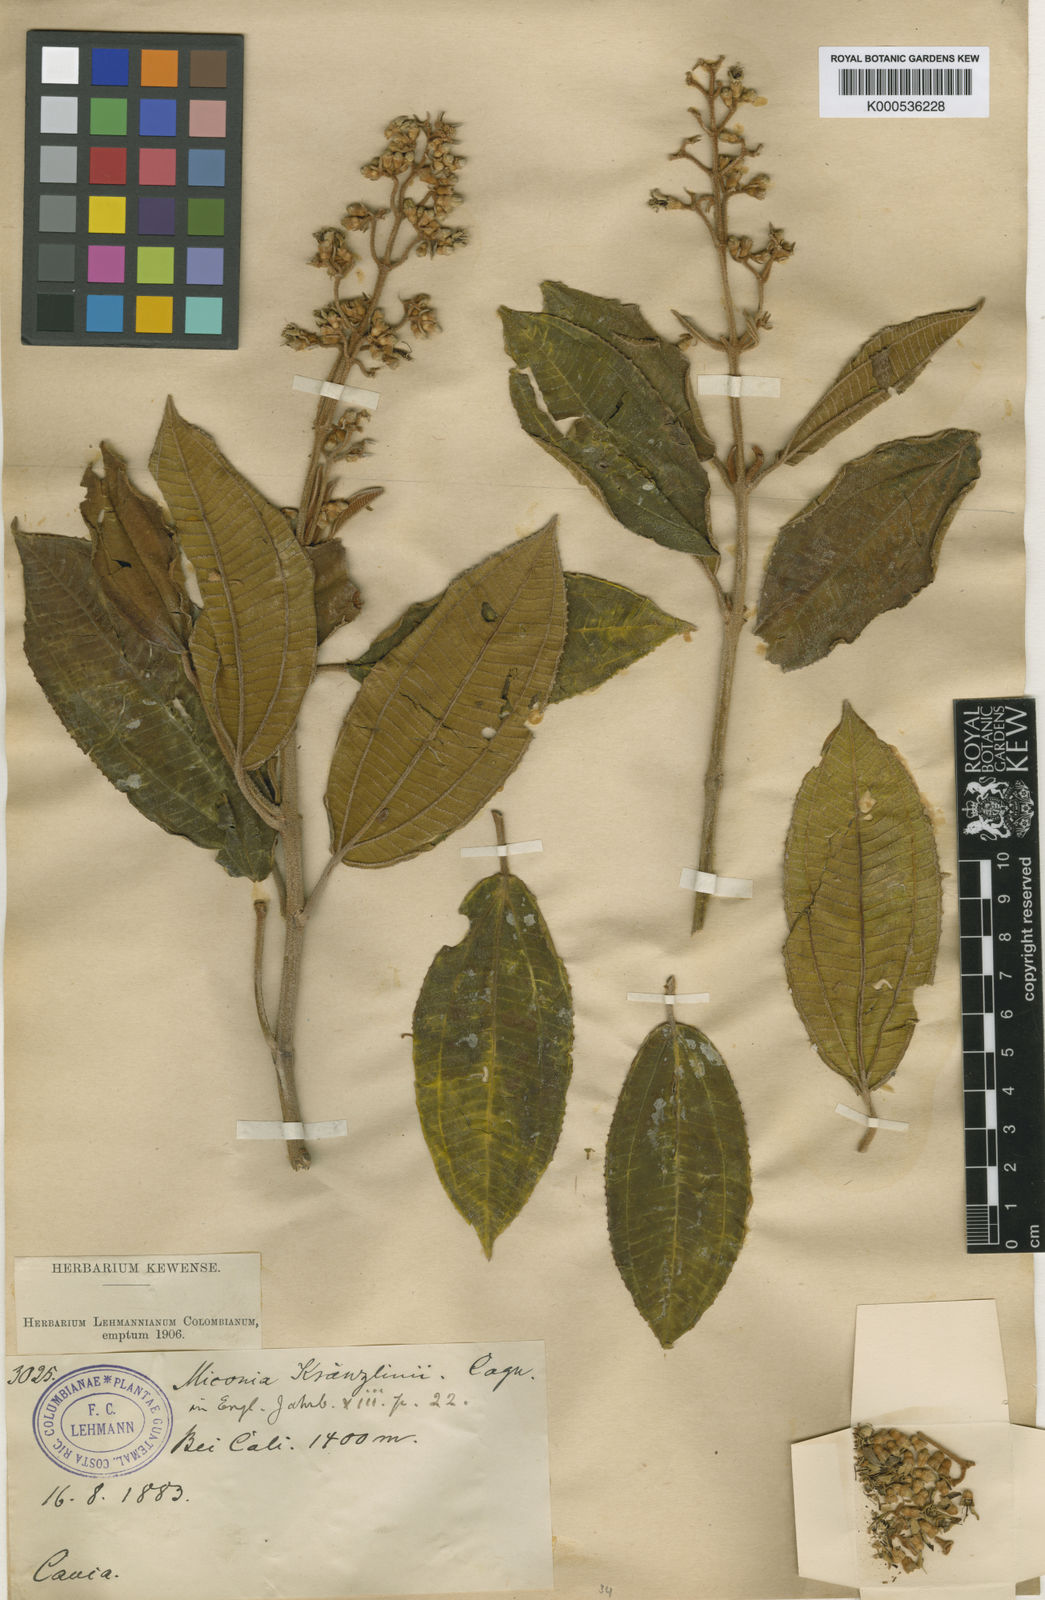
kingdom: Plantae
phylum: Tracheophyta
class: Magnoliopsida
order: Myrtales
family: Melastomataceae
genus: Miconia
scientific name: Miconia
